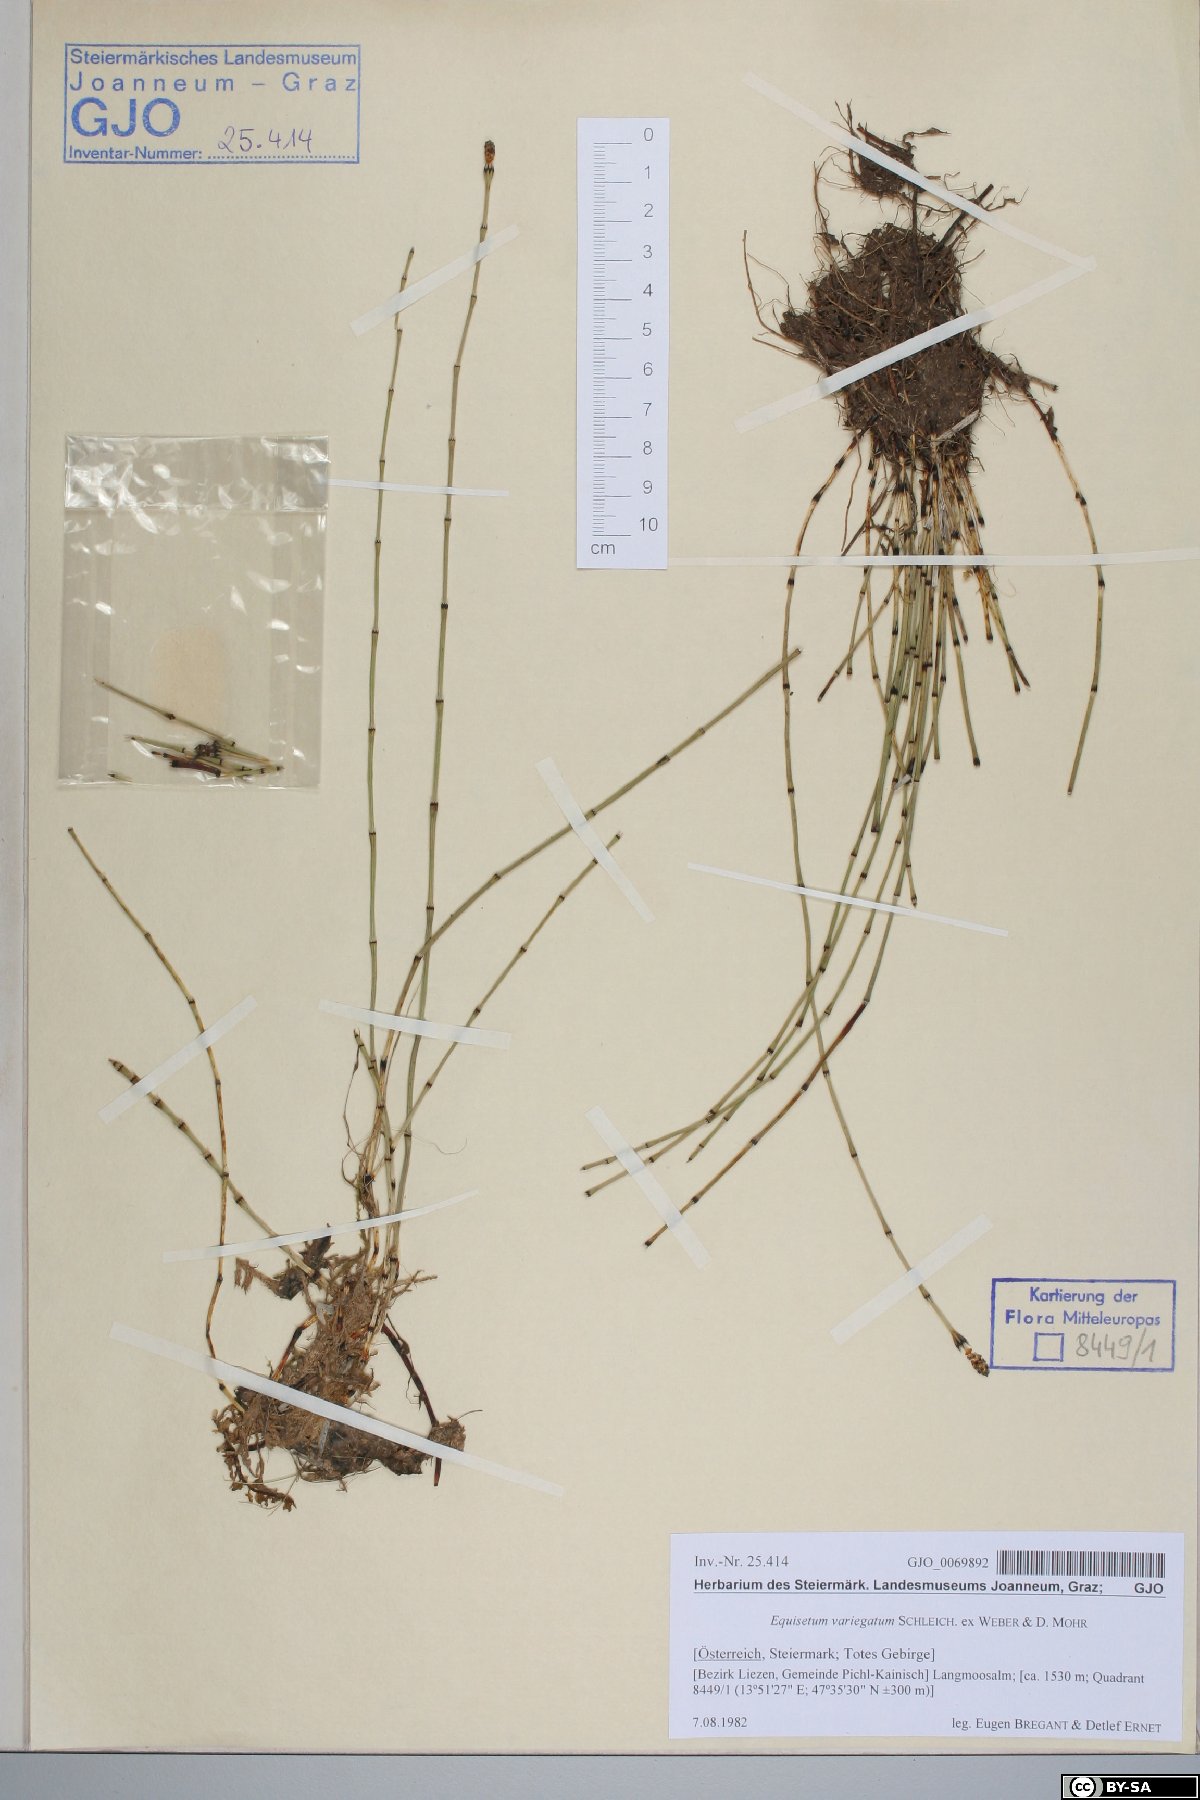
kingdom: Plantae
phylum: Tracheophyta
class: Polypodiopsida
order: Equisetales
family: Equisetaceae
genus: Equisetum
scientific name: Equisetum variegatum
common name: Variegated horsetail
